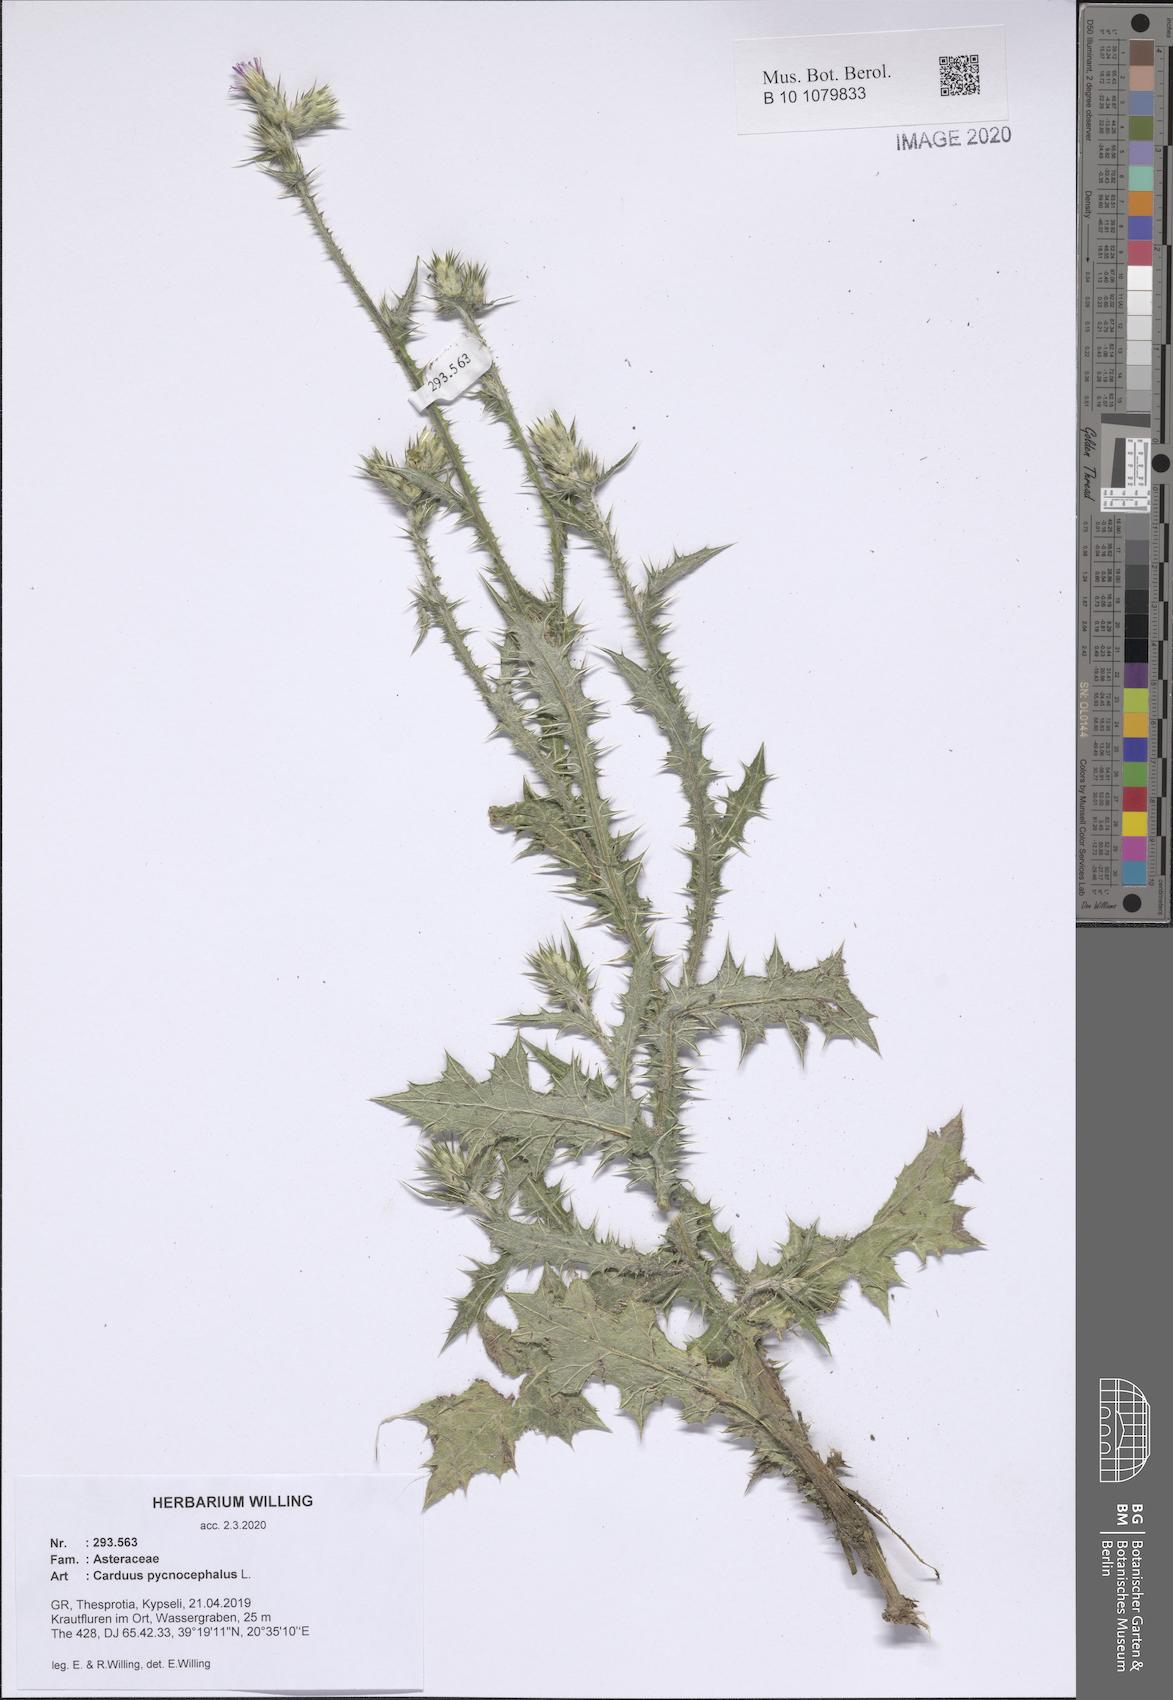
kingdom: Plantae
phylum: Tracheophyta
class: Magnoliopsida
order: Asterales
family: Asteraceae
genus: Carduus
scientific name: Carduus pycnocephalus
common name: Plymouth thistle
